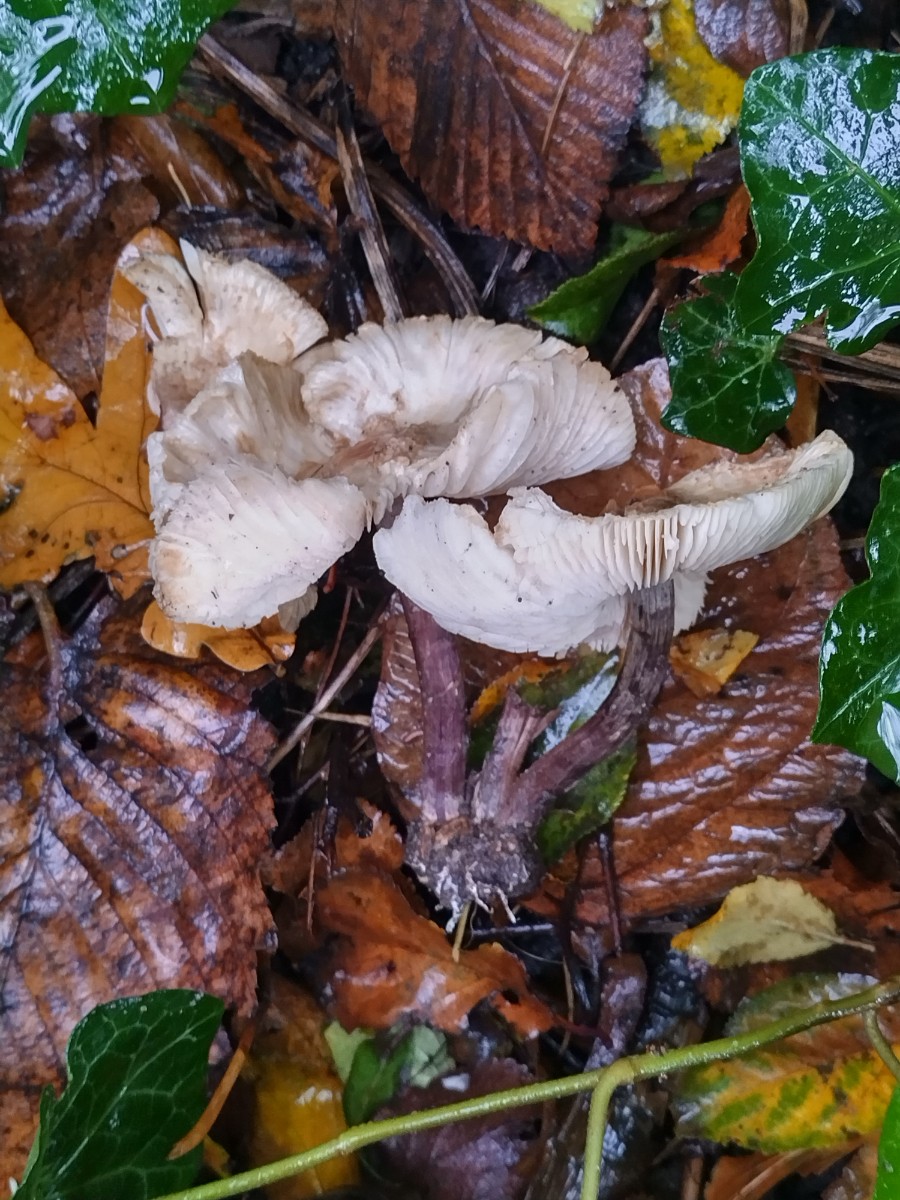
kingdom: Fungi
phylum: Basidiomycota
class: Agaricomycetes
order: Agaricales
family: Agaricaceae
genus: Lepiota
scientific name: Lepiota
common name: parasolhat
